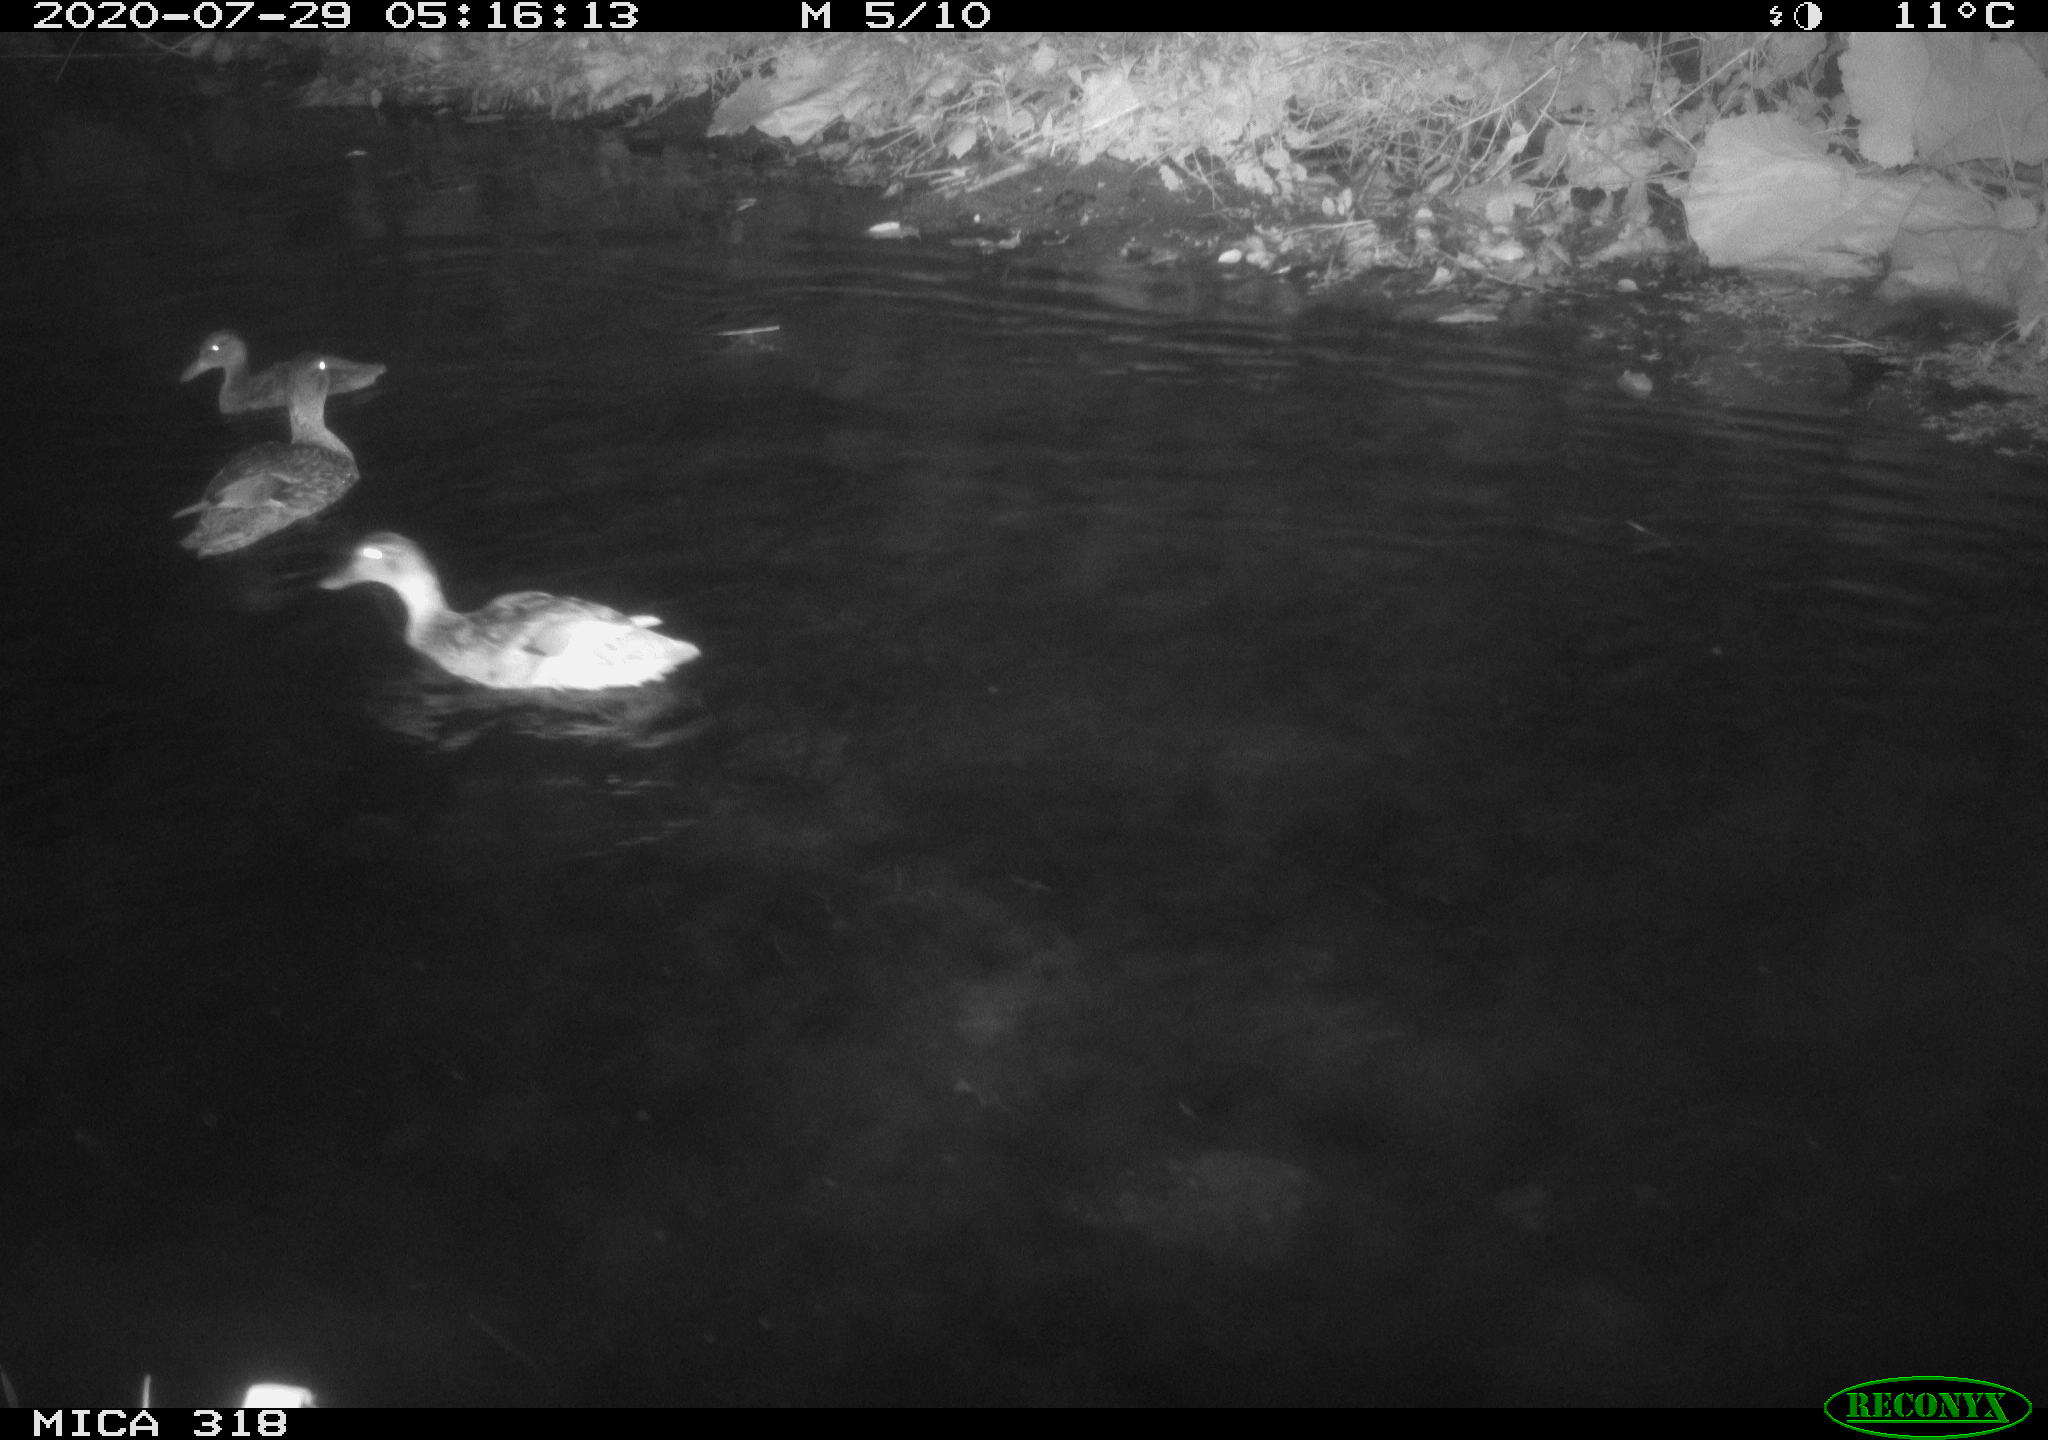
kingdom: Animalia
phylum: Chordata
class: Aves
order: Anseriformes
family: Anatidae
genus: Anas
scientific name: Anas platyrhynchos
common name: Mallard
